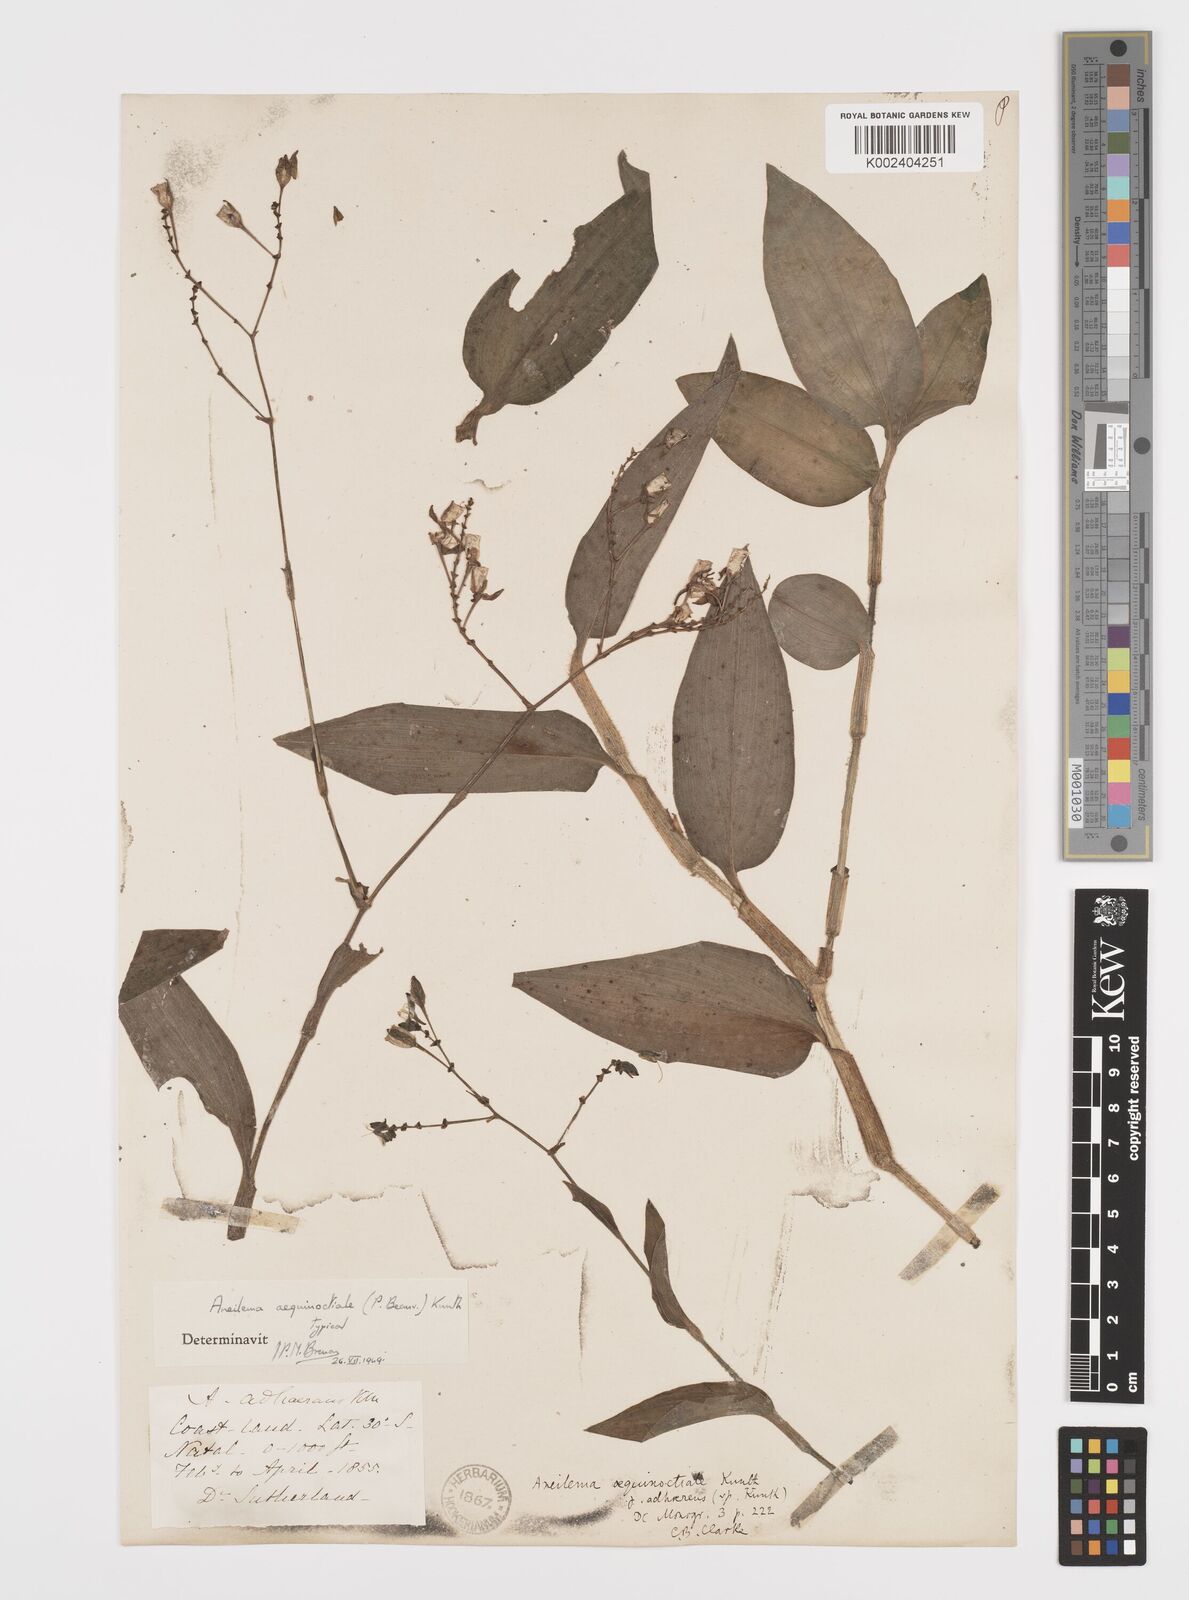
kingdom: Plantae
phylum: Tracheophyta
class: Liliopsida
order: Commelinales
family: Commelinaceae
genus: Aneilema
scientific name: Aneilema aequinoctiale
